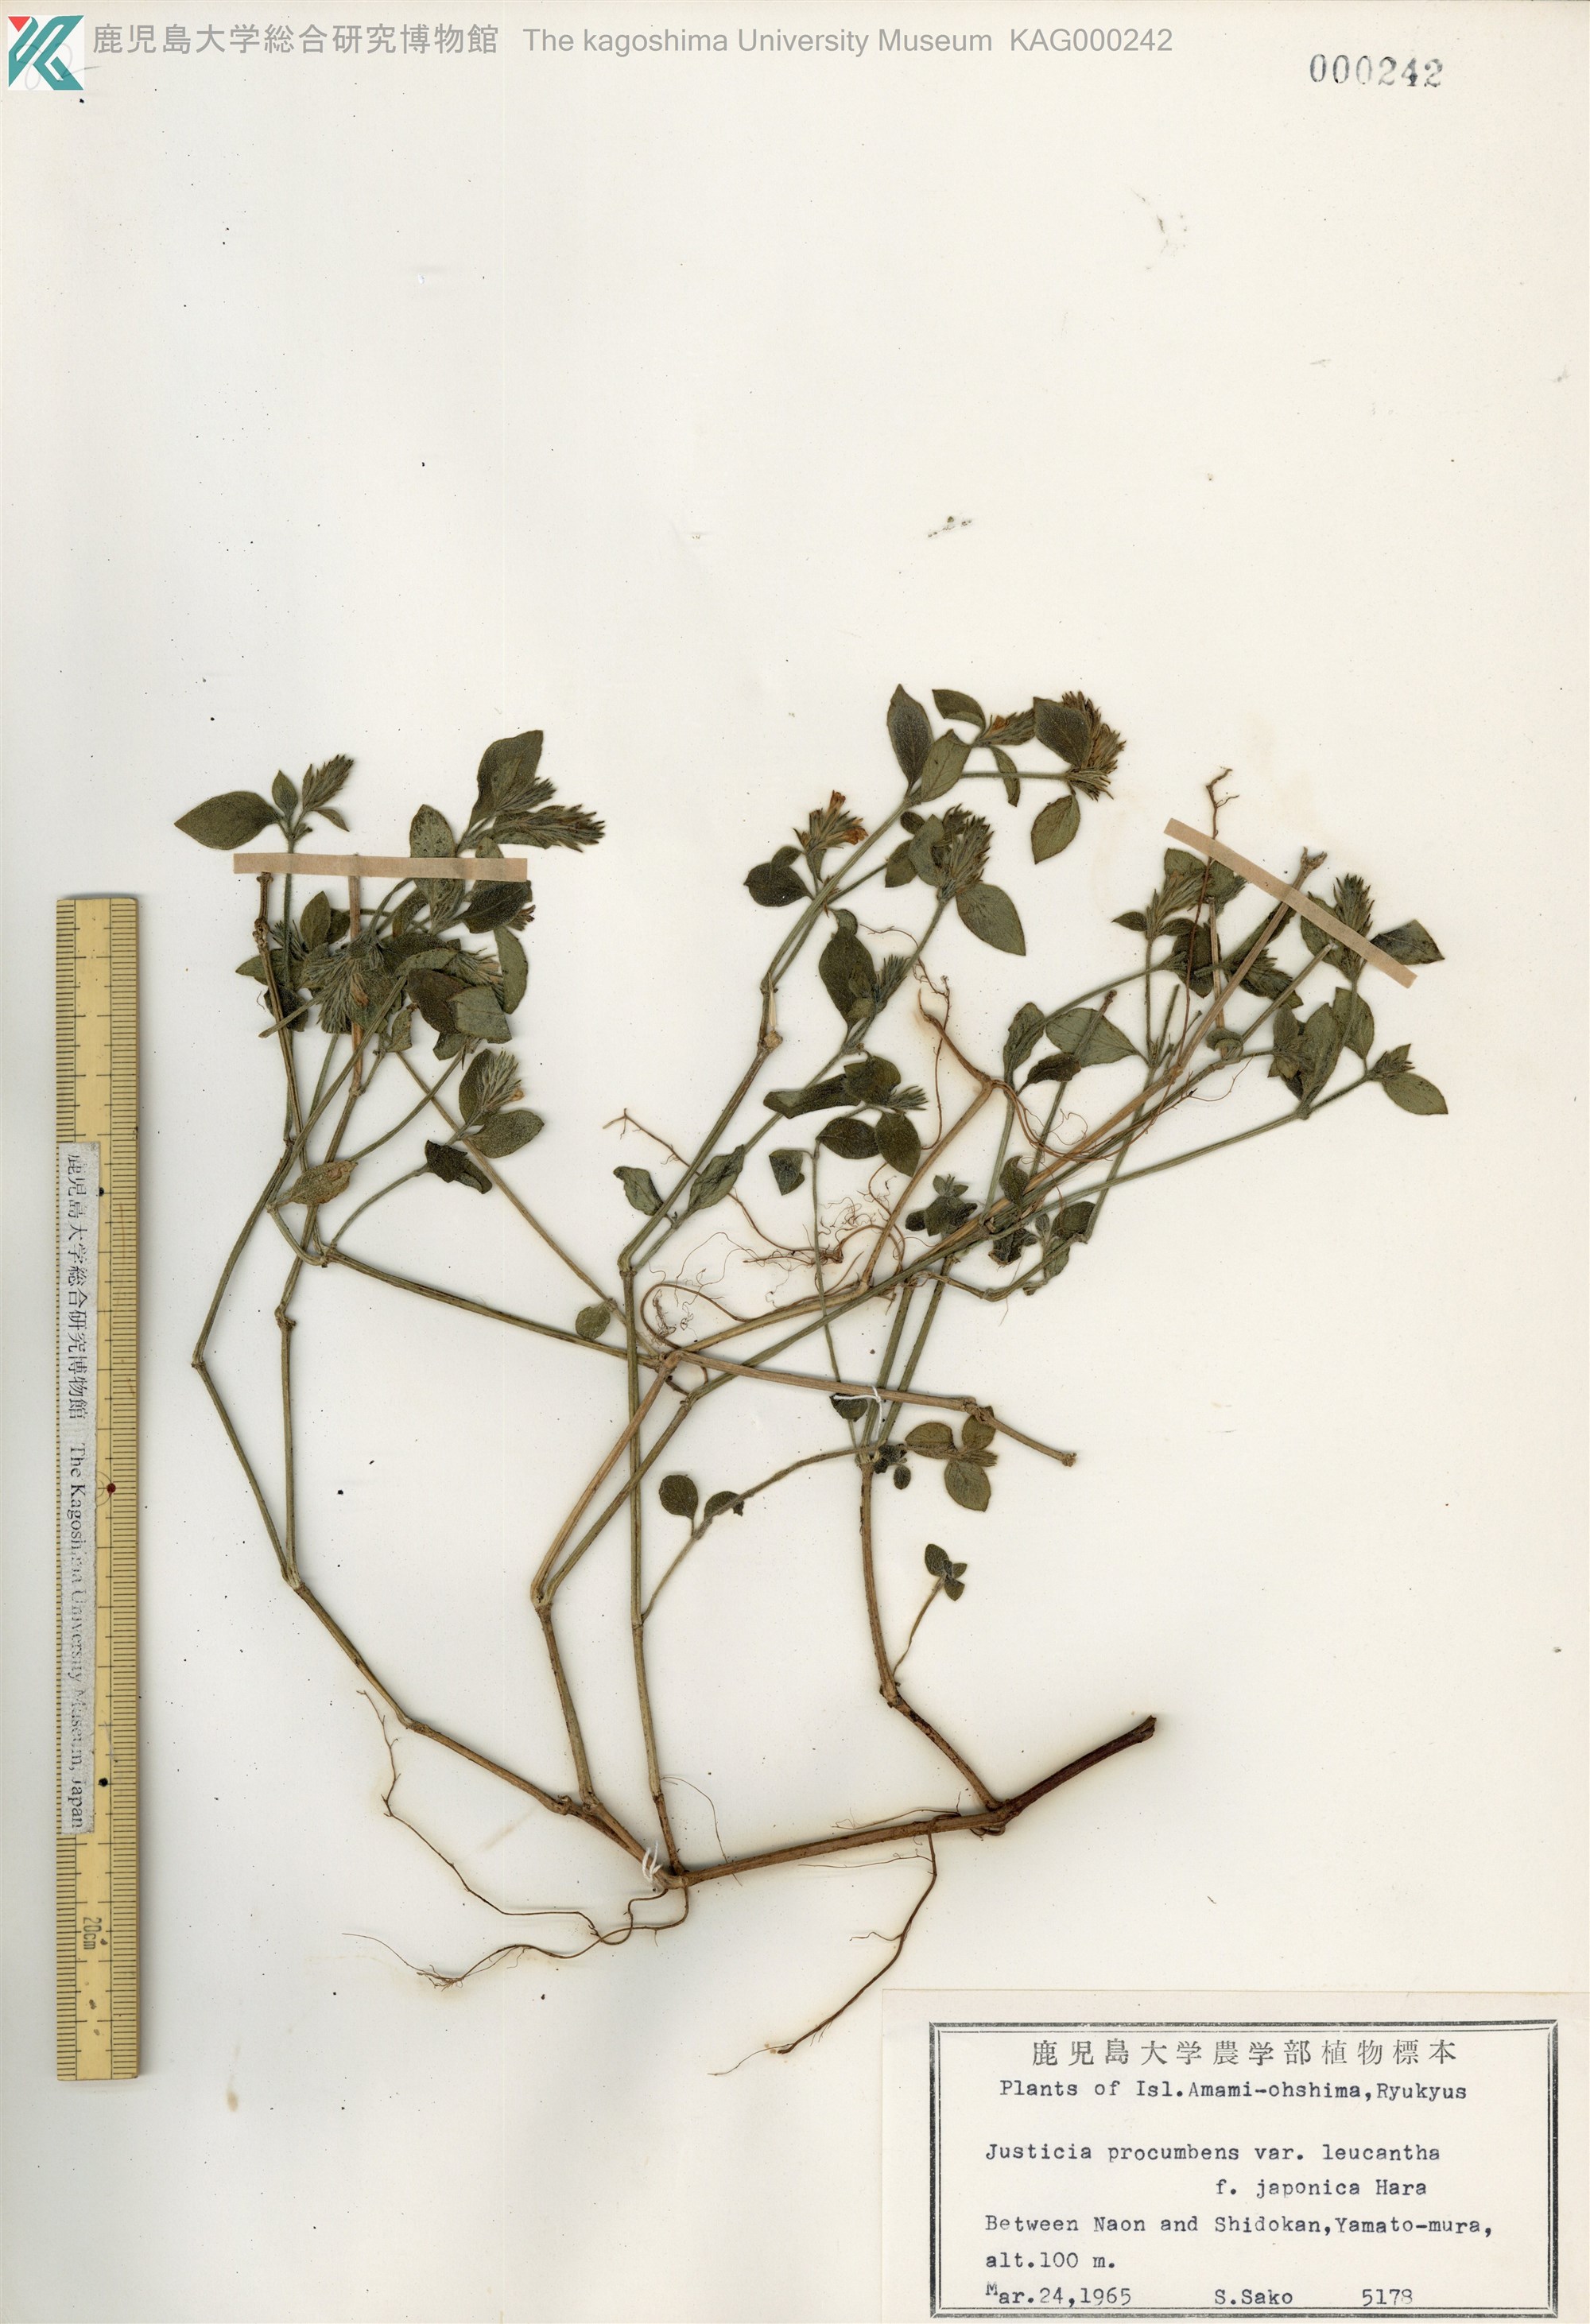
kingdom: Plantae
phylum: Tracheophyta
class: Magnoliopsida
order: Lamiales
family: Acanthaceae
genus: Rostellularia
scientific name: Rostellularia procumbens
